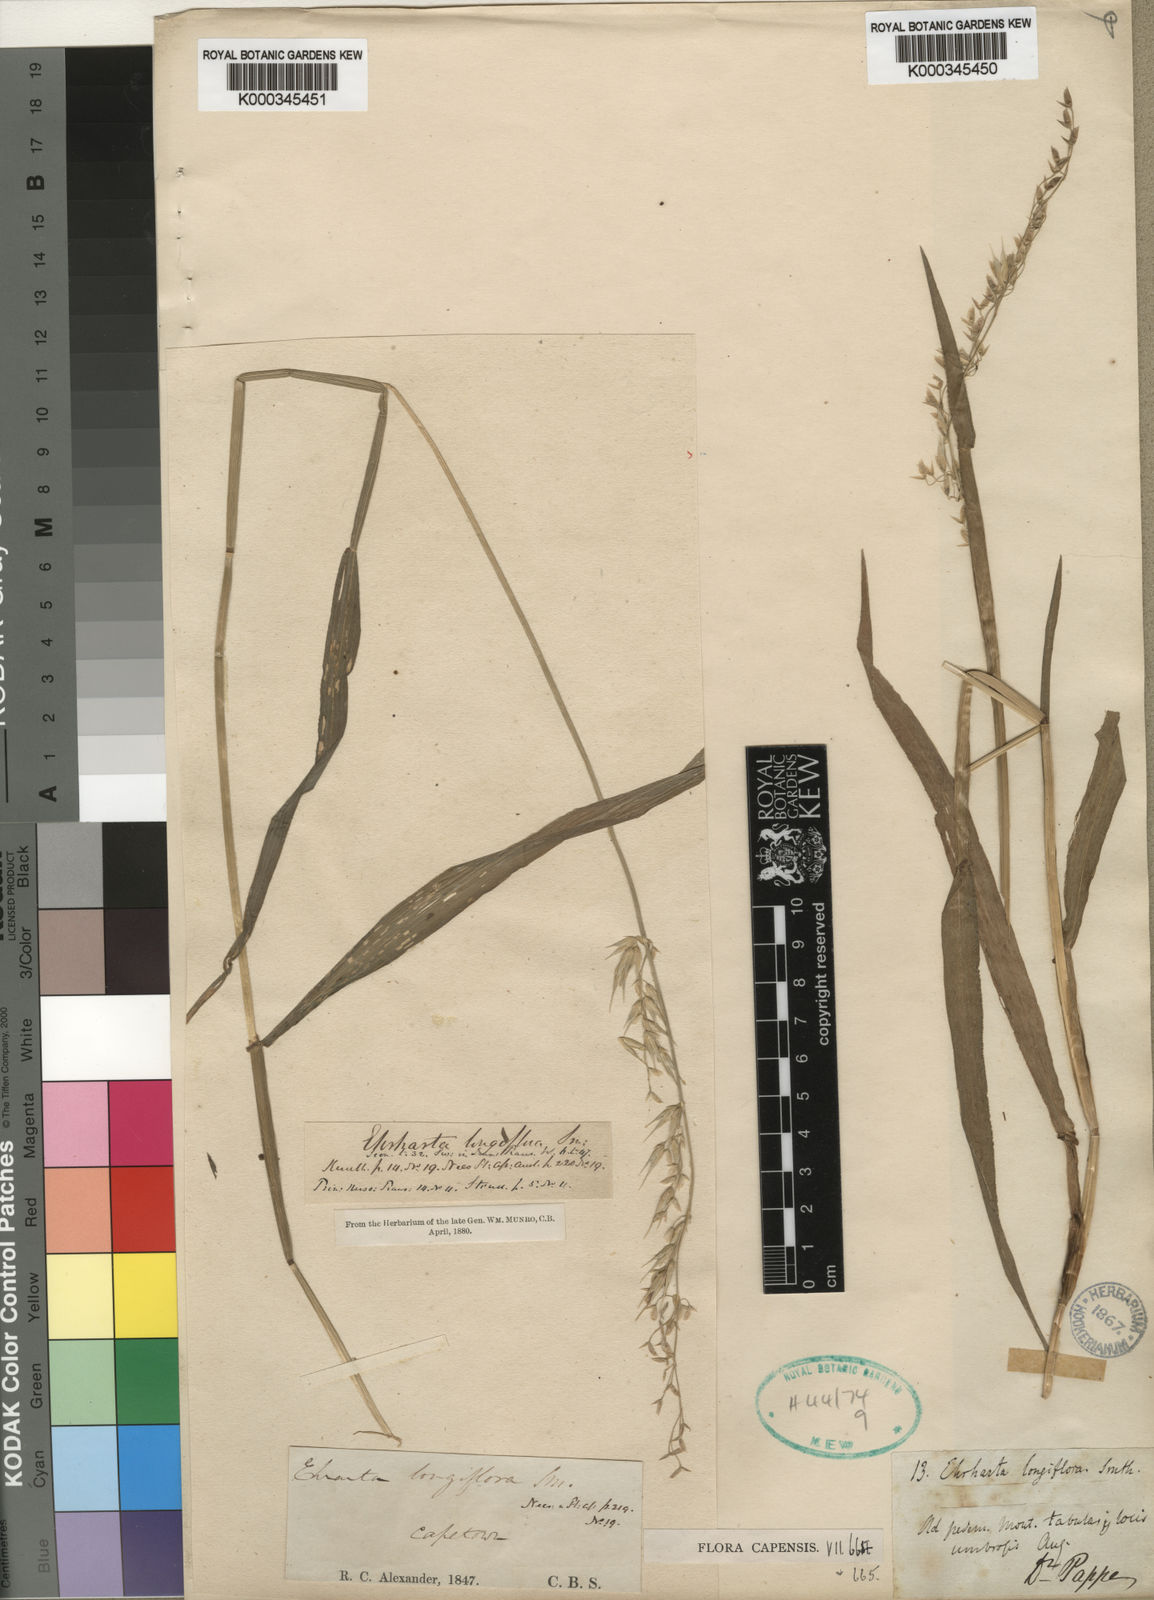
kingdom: Plantae
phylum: Tracheophyta
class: Liliopsida
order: Poales
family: Poaceae
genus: Ehrharta
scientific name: Ehrharta longiflora
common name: Longflowered veldtgrass
